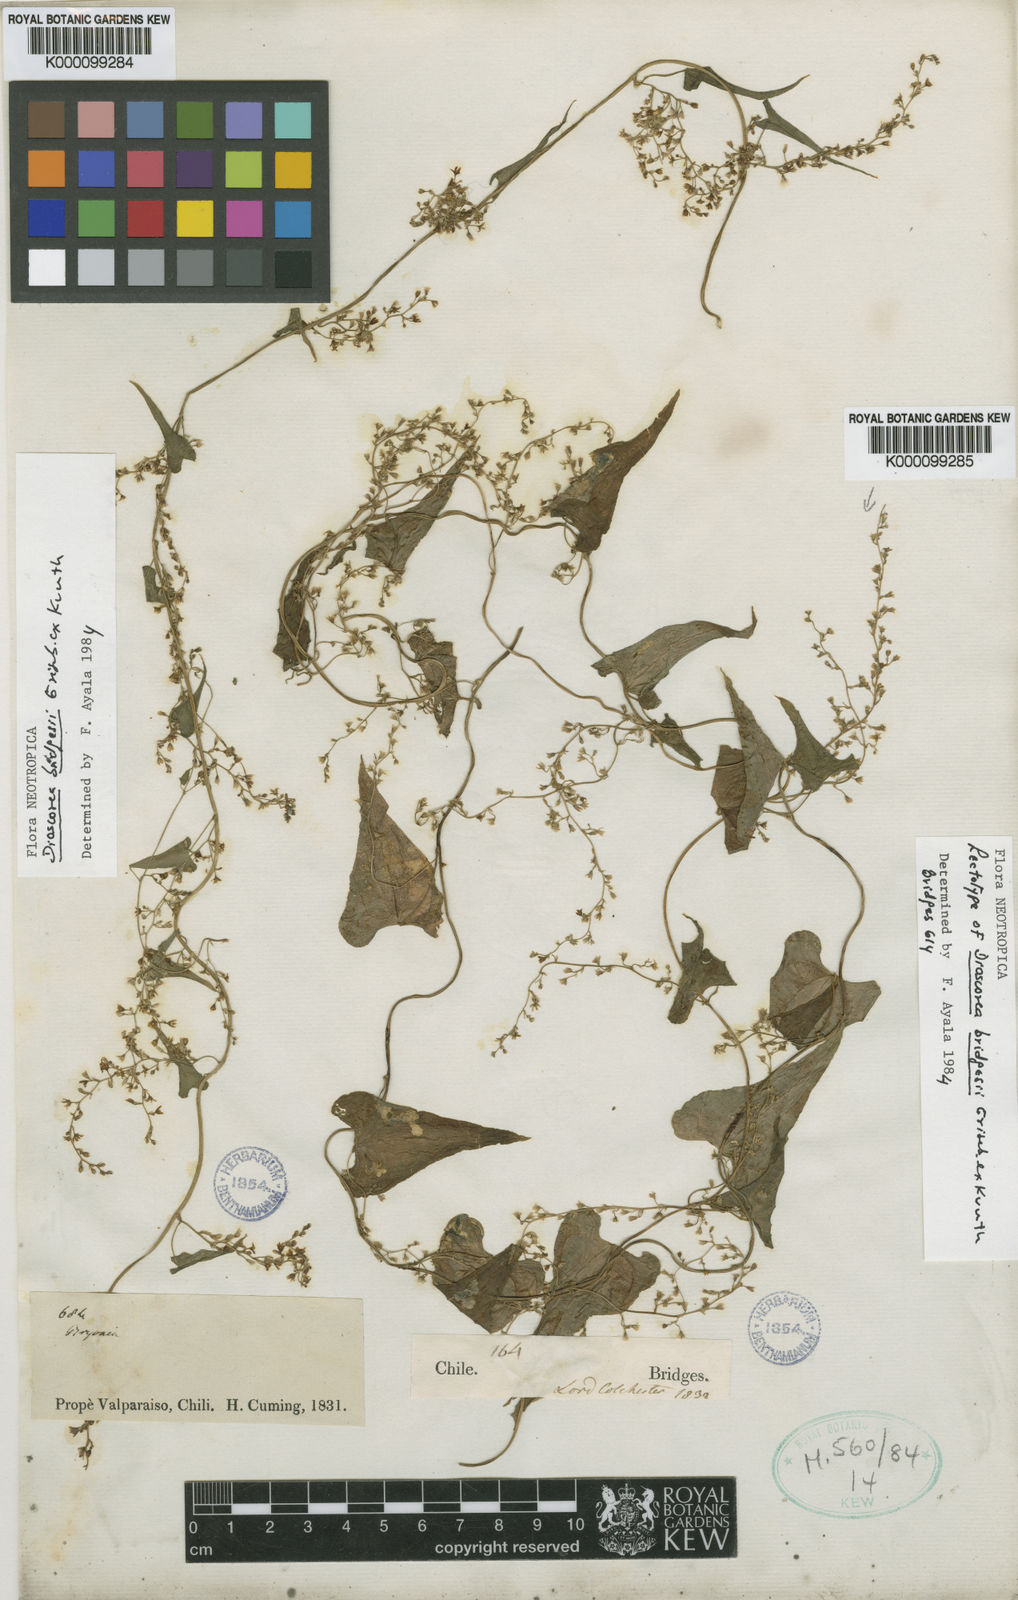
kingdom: Plantae
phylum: Tracheophyta
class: Liliopsida
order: Dioscoreales
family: Dioscoreaceae
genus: Dioscorea
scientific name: Dioscorea bridgesii
